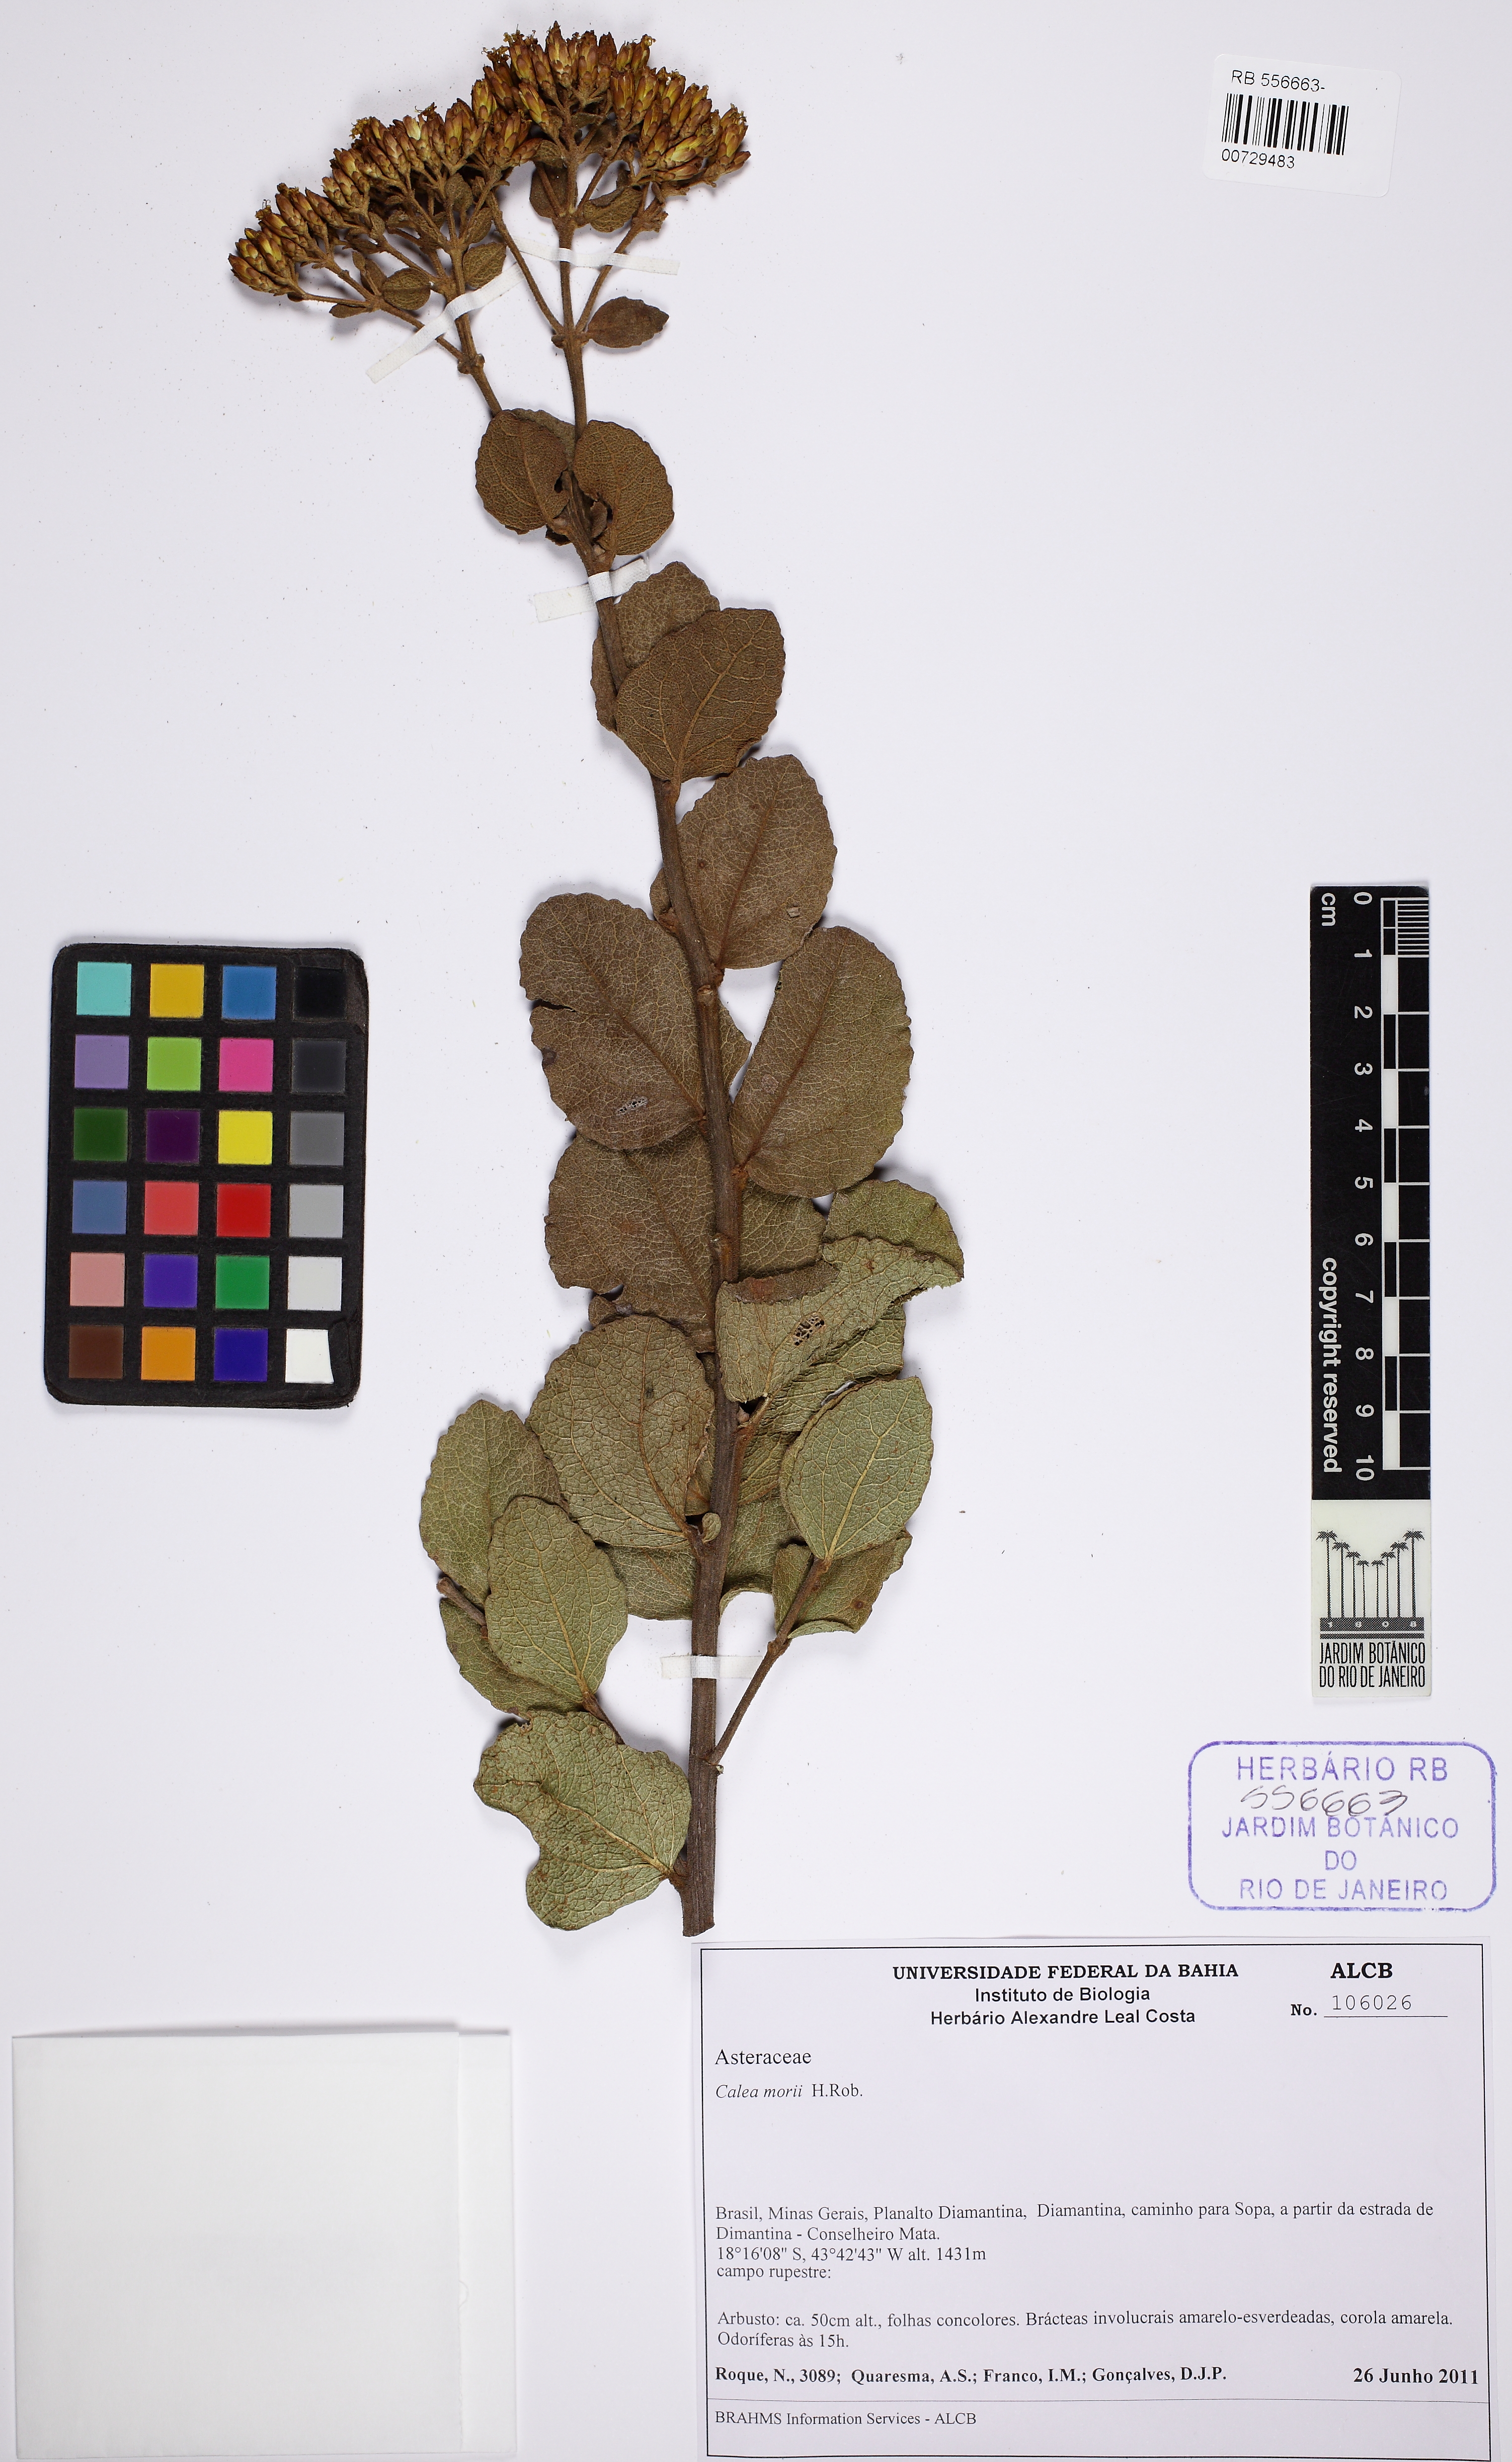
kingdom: Plantae
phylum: Tracheophyta
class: Magnoliopsida
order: Asterales
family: Asteraceae
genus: Calea
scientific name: Calea morii
